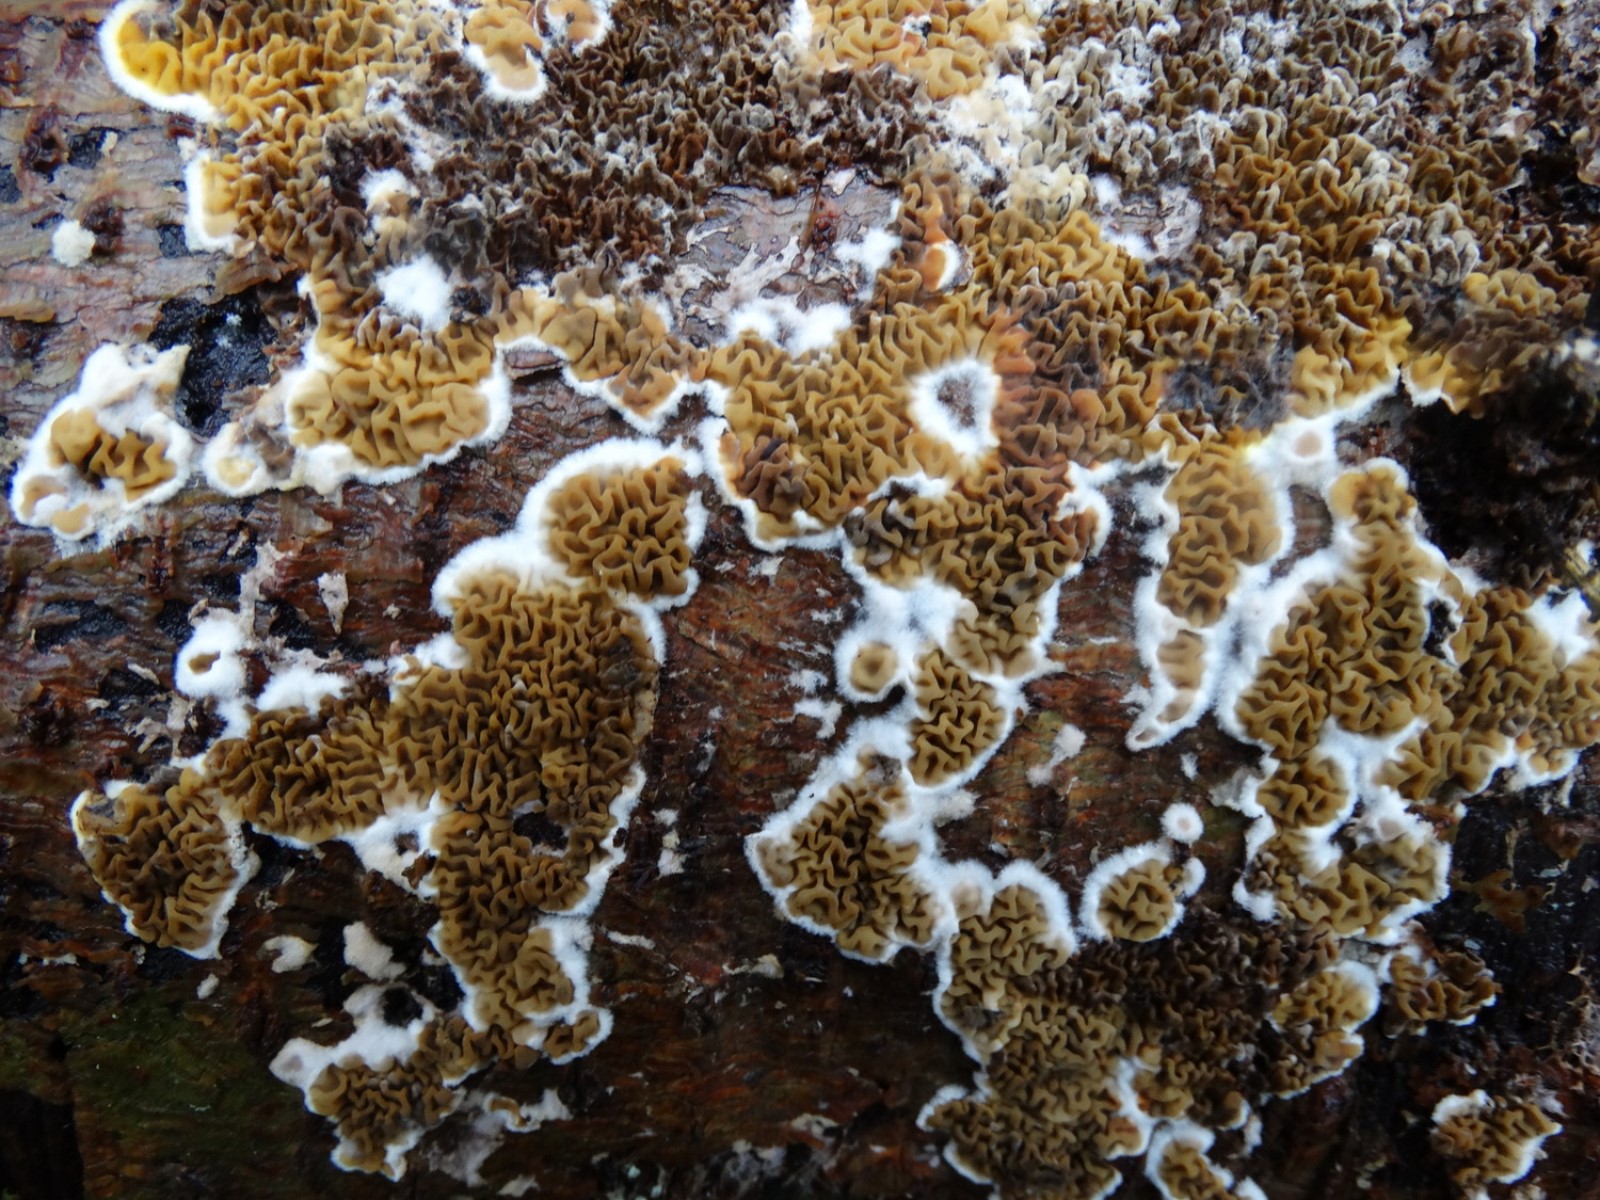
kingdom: Fungi
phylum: Basidiomycota
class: Agaricomycetes
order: Boletales
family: Serpulaceae
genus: Serpula
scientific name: Serpula himantioides
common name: tyndkødet hussvamp
